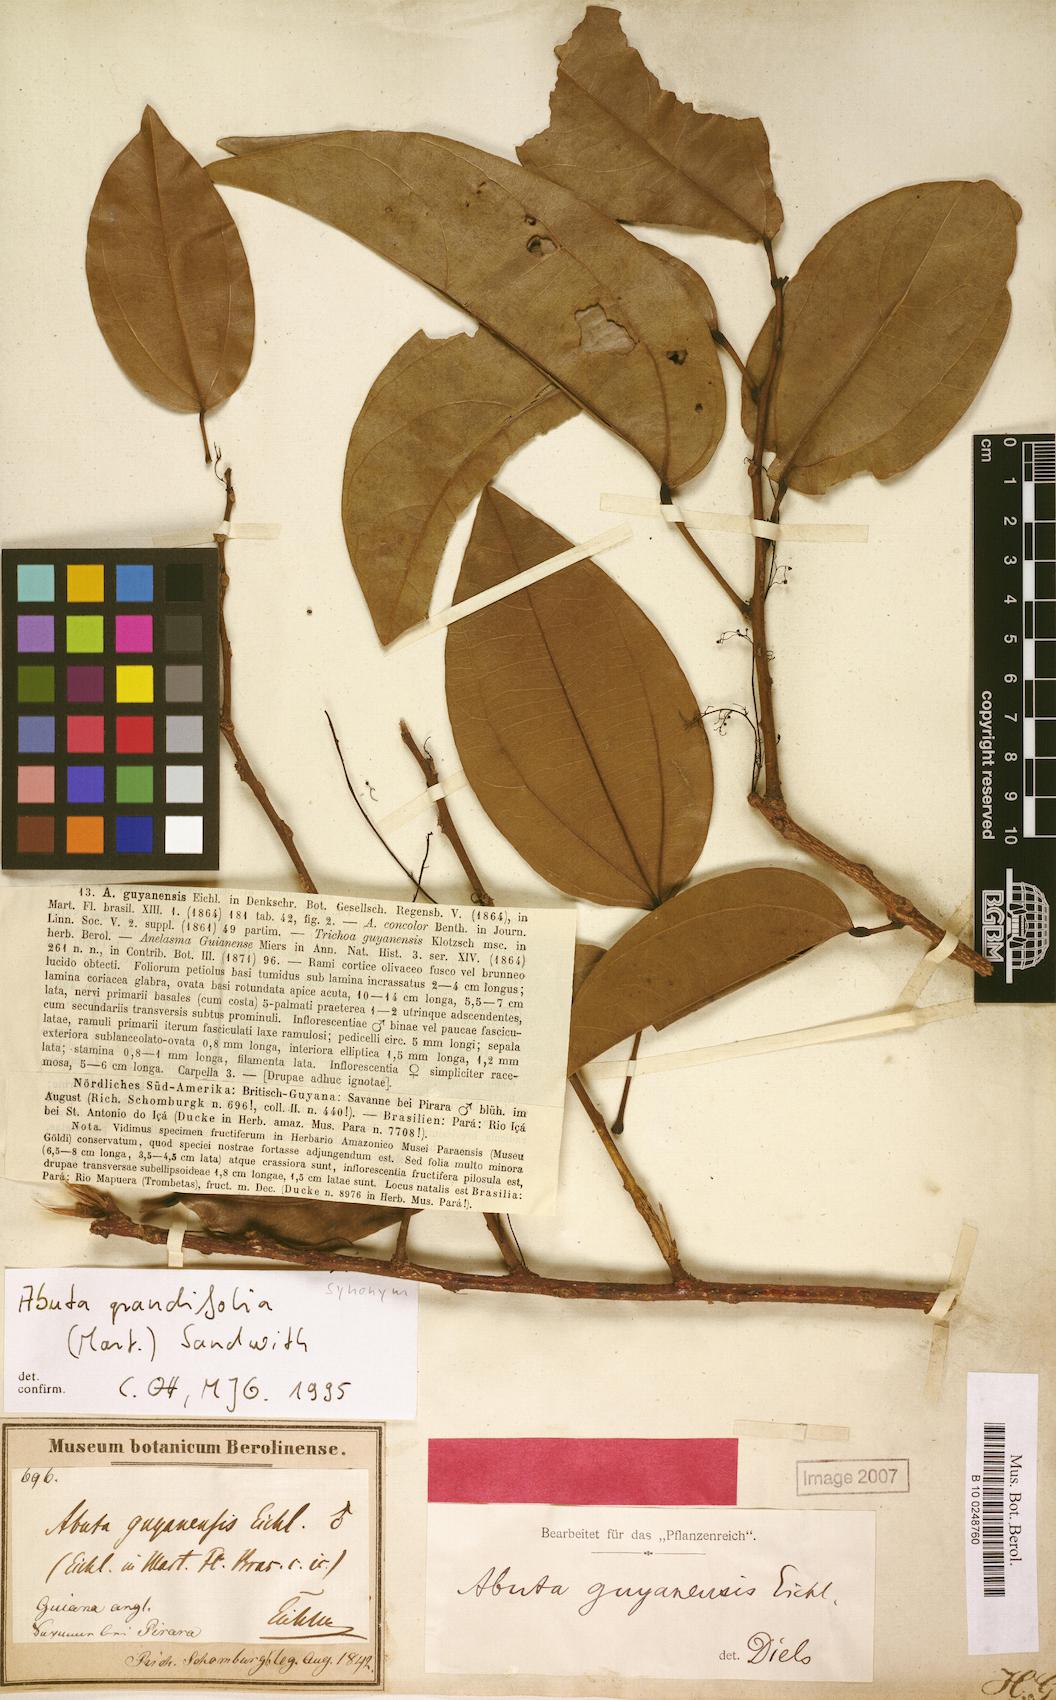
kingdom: Plantae
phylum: Tracheophyta
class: Magnoliopsida
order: Ranunculales
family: Menispermaceae
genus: Abuta
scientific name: Abuta grandifolia
